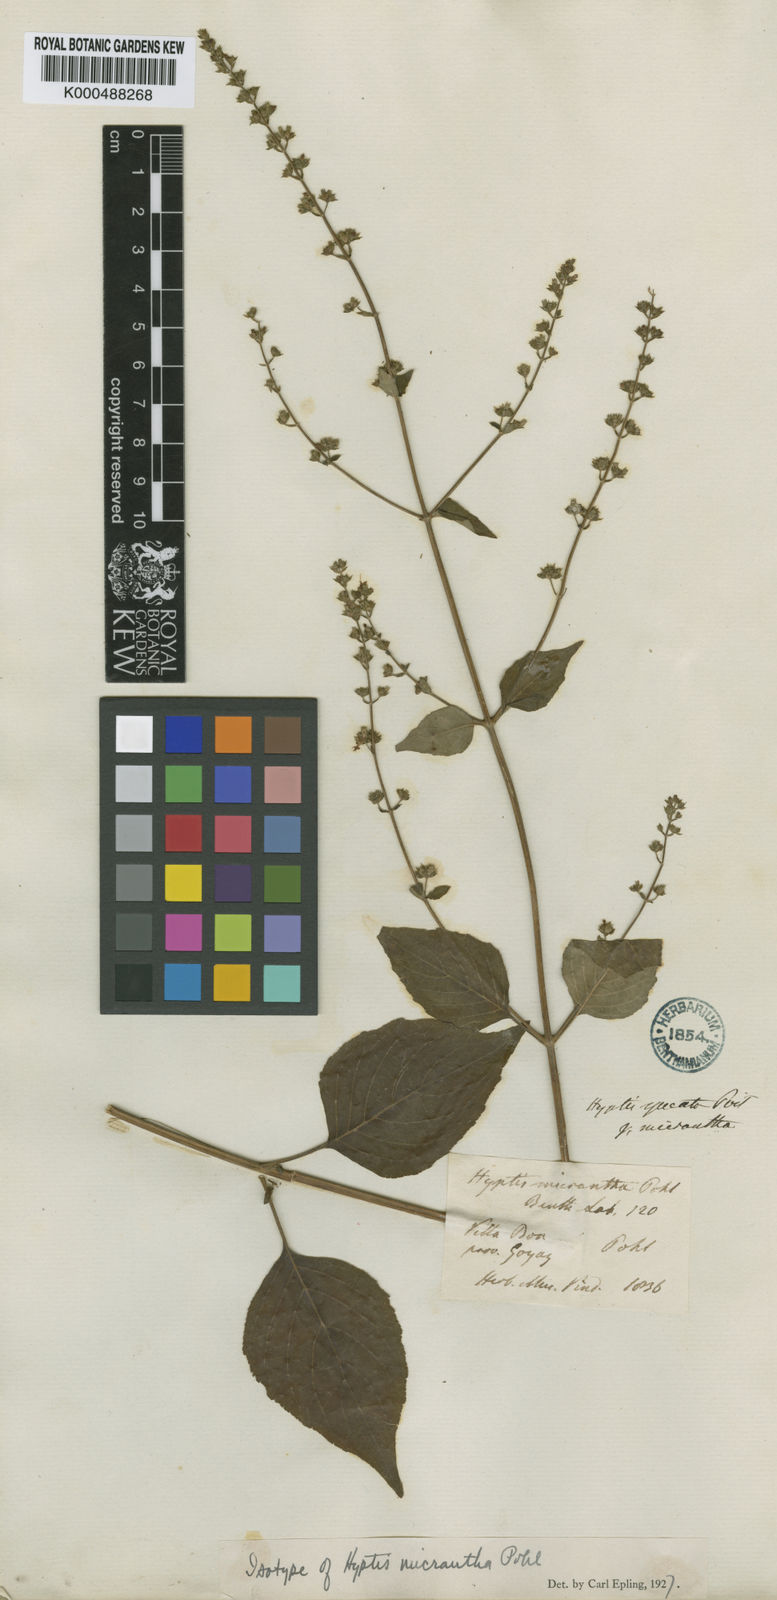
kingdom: Plantae
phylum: Tracheophyta
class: Magnoliopsida
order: Lamiales
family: Lamiaceae
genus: Cantinoa
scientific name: Cantinoa mutabilis
